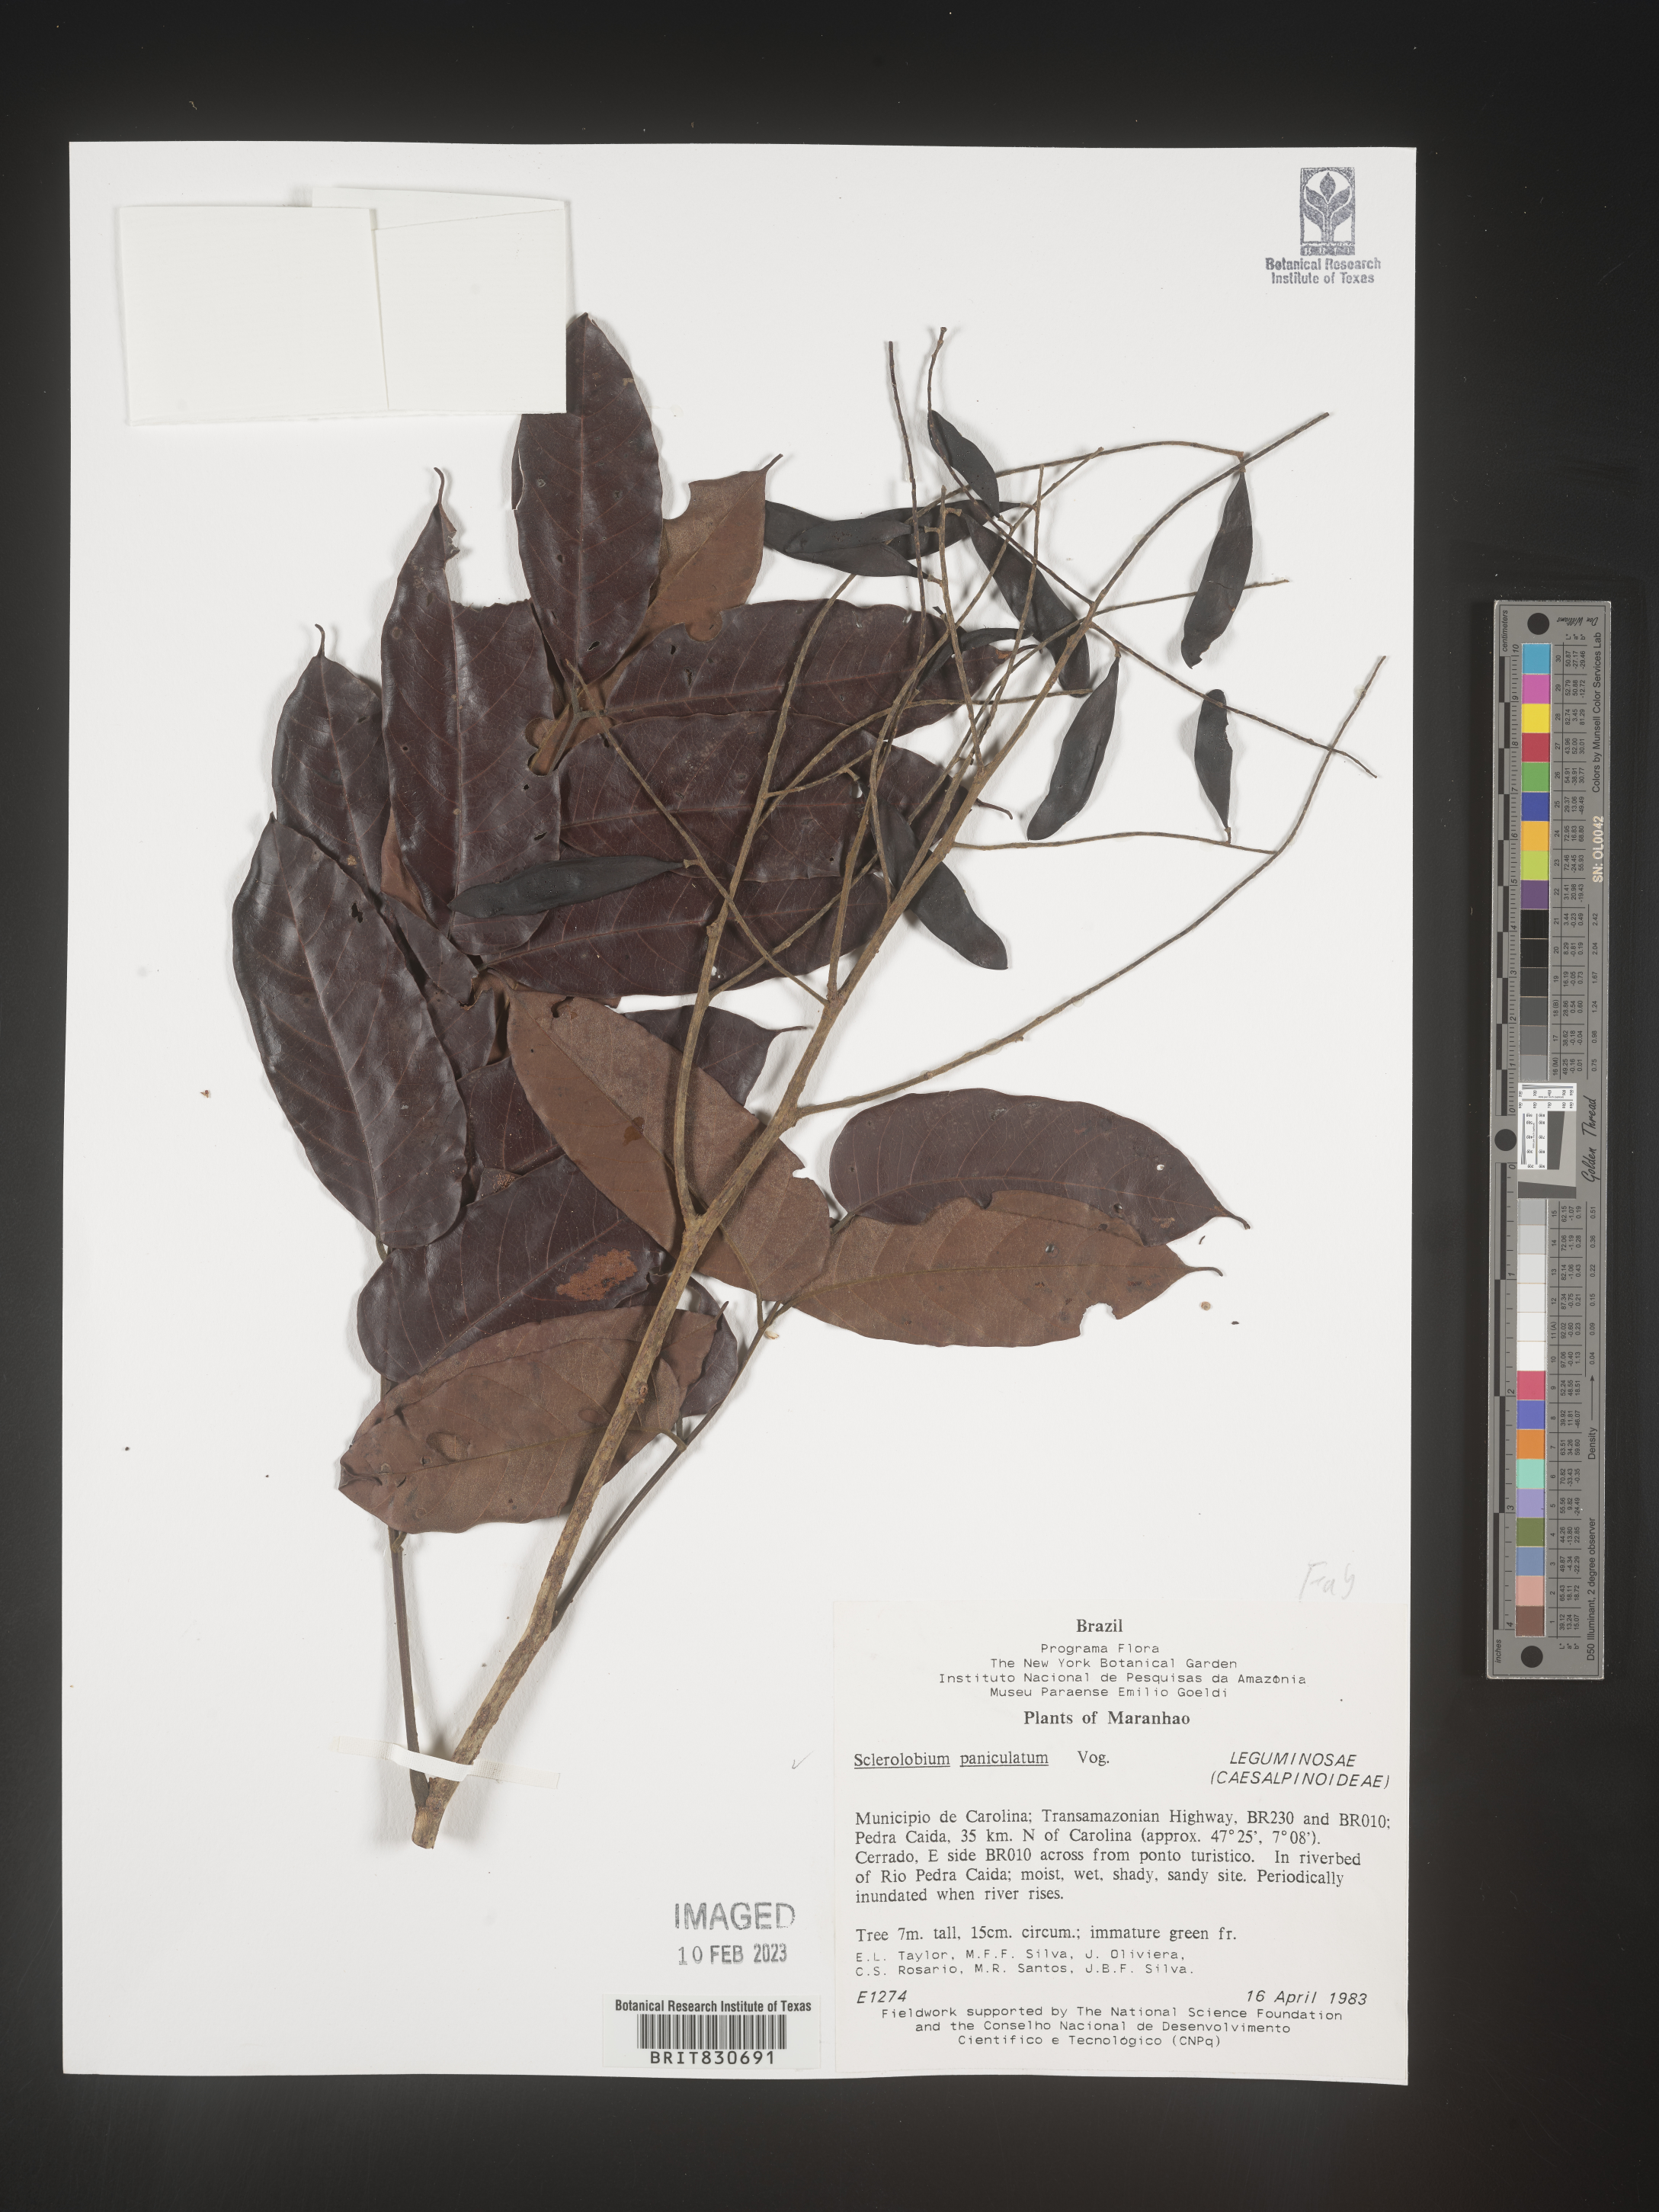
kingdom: Plantae
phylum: Tracheophyta
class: Magnoliopsida
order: Fabales
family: Fabaceae
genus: Tachigali
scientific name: Tachigali
